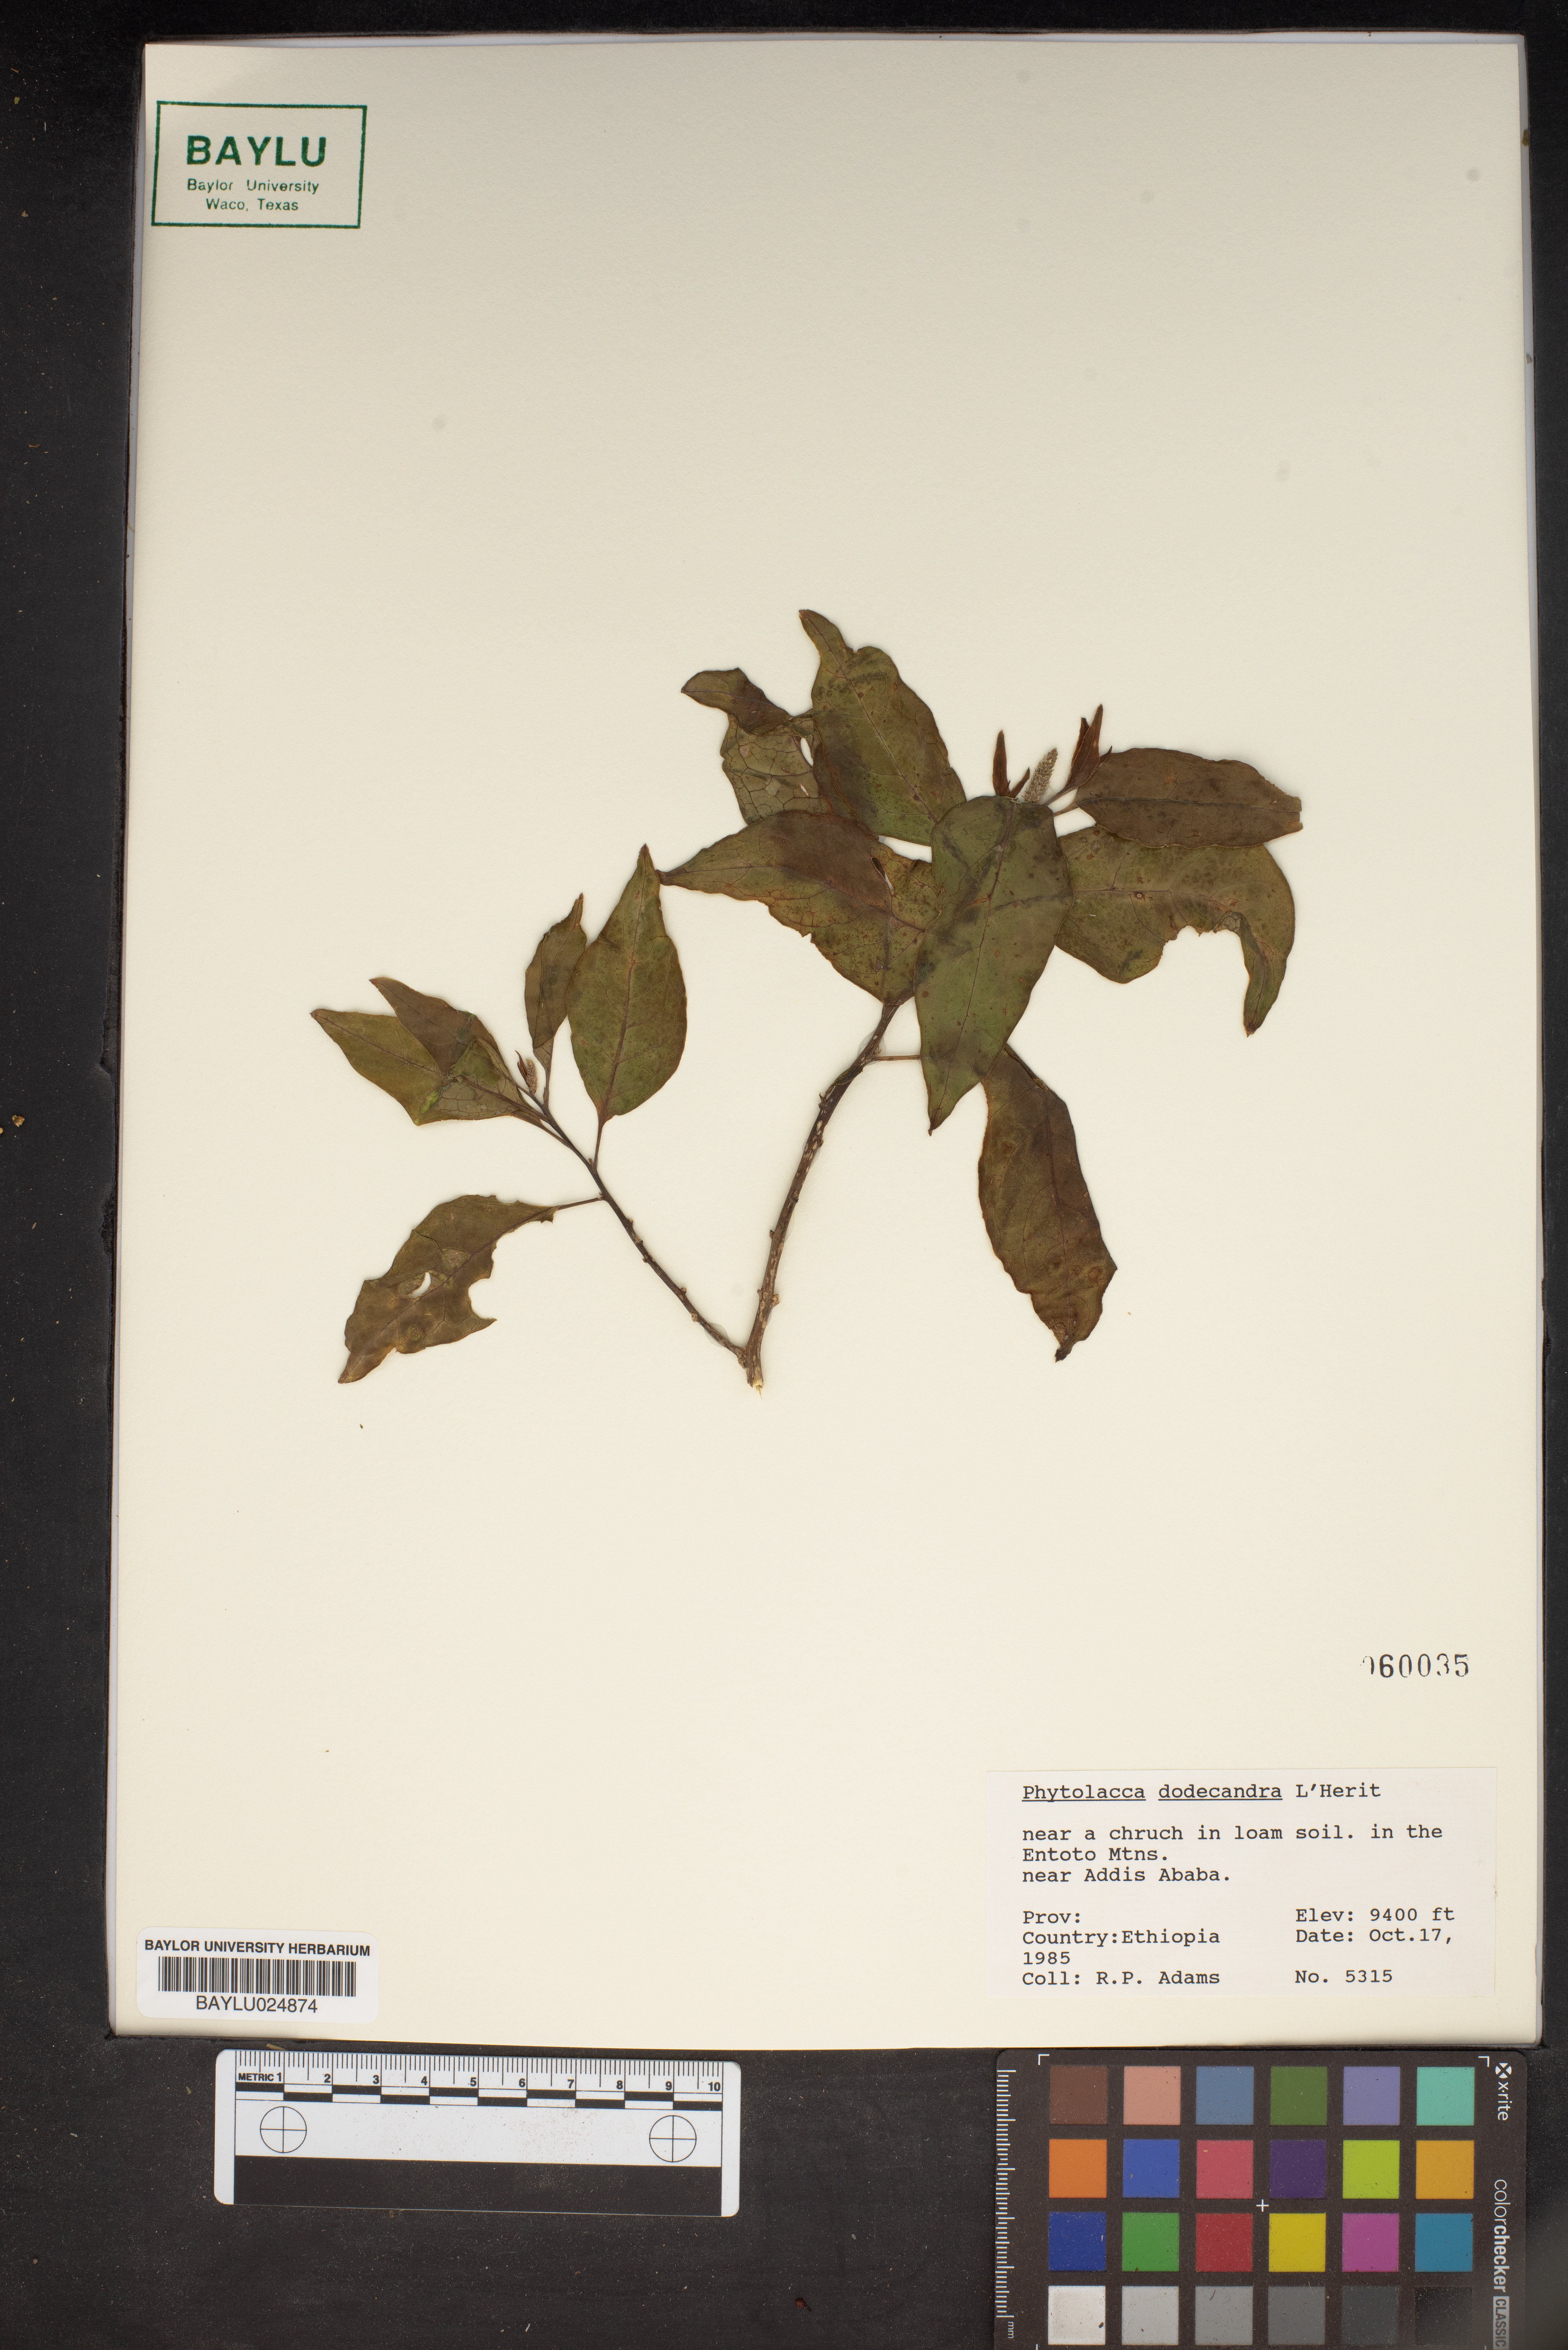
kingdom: Plantae
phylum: Tracheophyta
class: Magnoliopsida
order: Caryophyllales
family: Phytolaccaceae
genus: Phytolacca
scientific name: Phytolacca dodecandra
